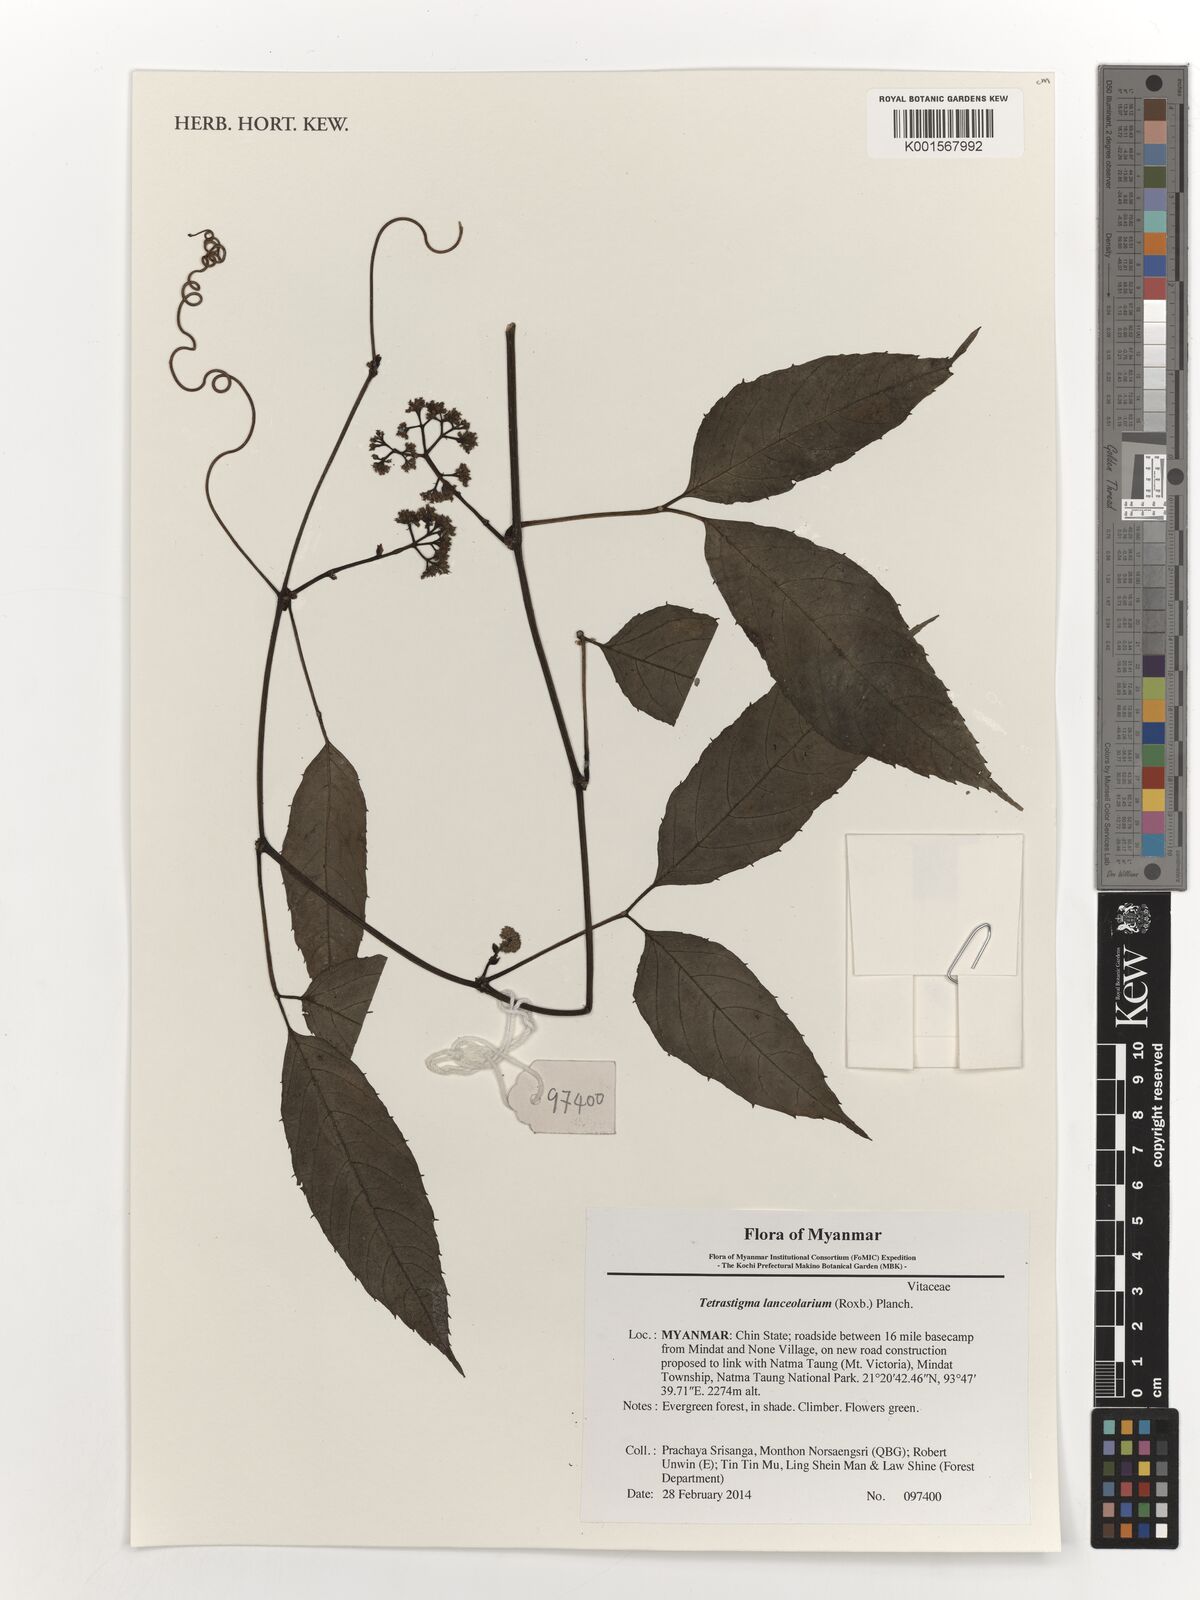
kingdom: Plantae
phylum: Tracheophyta
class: Magnoliopsida
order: Vitales
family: Vitaceae
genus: Tetrastigma
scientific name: Tetrastigma leucostaphylum
